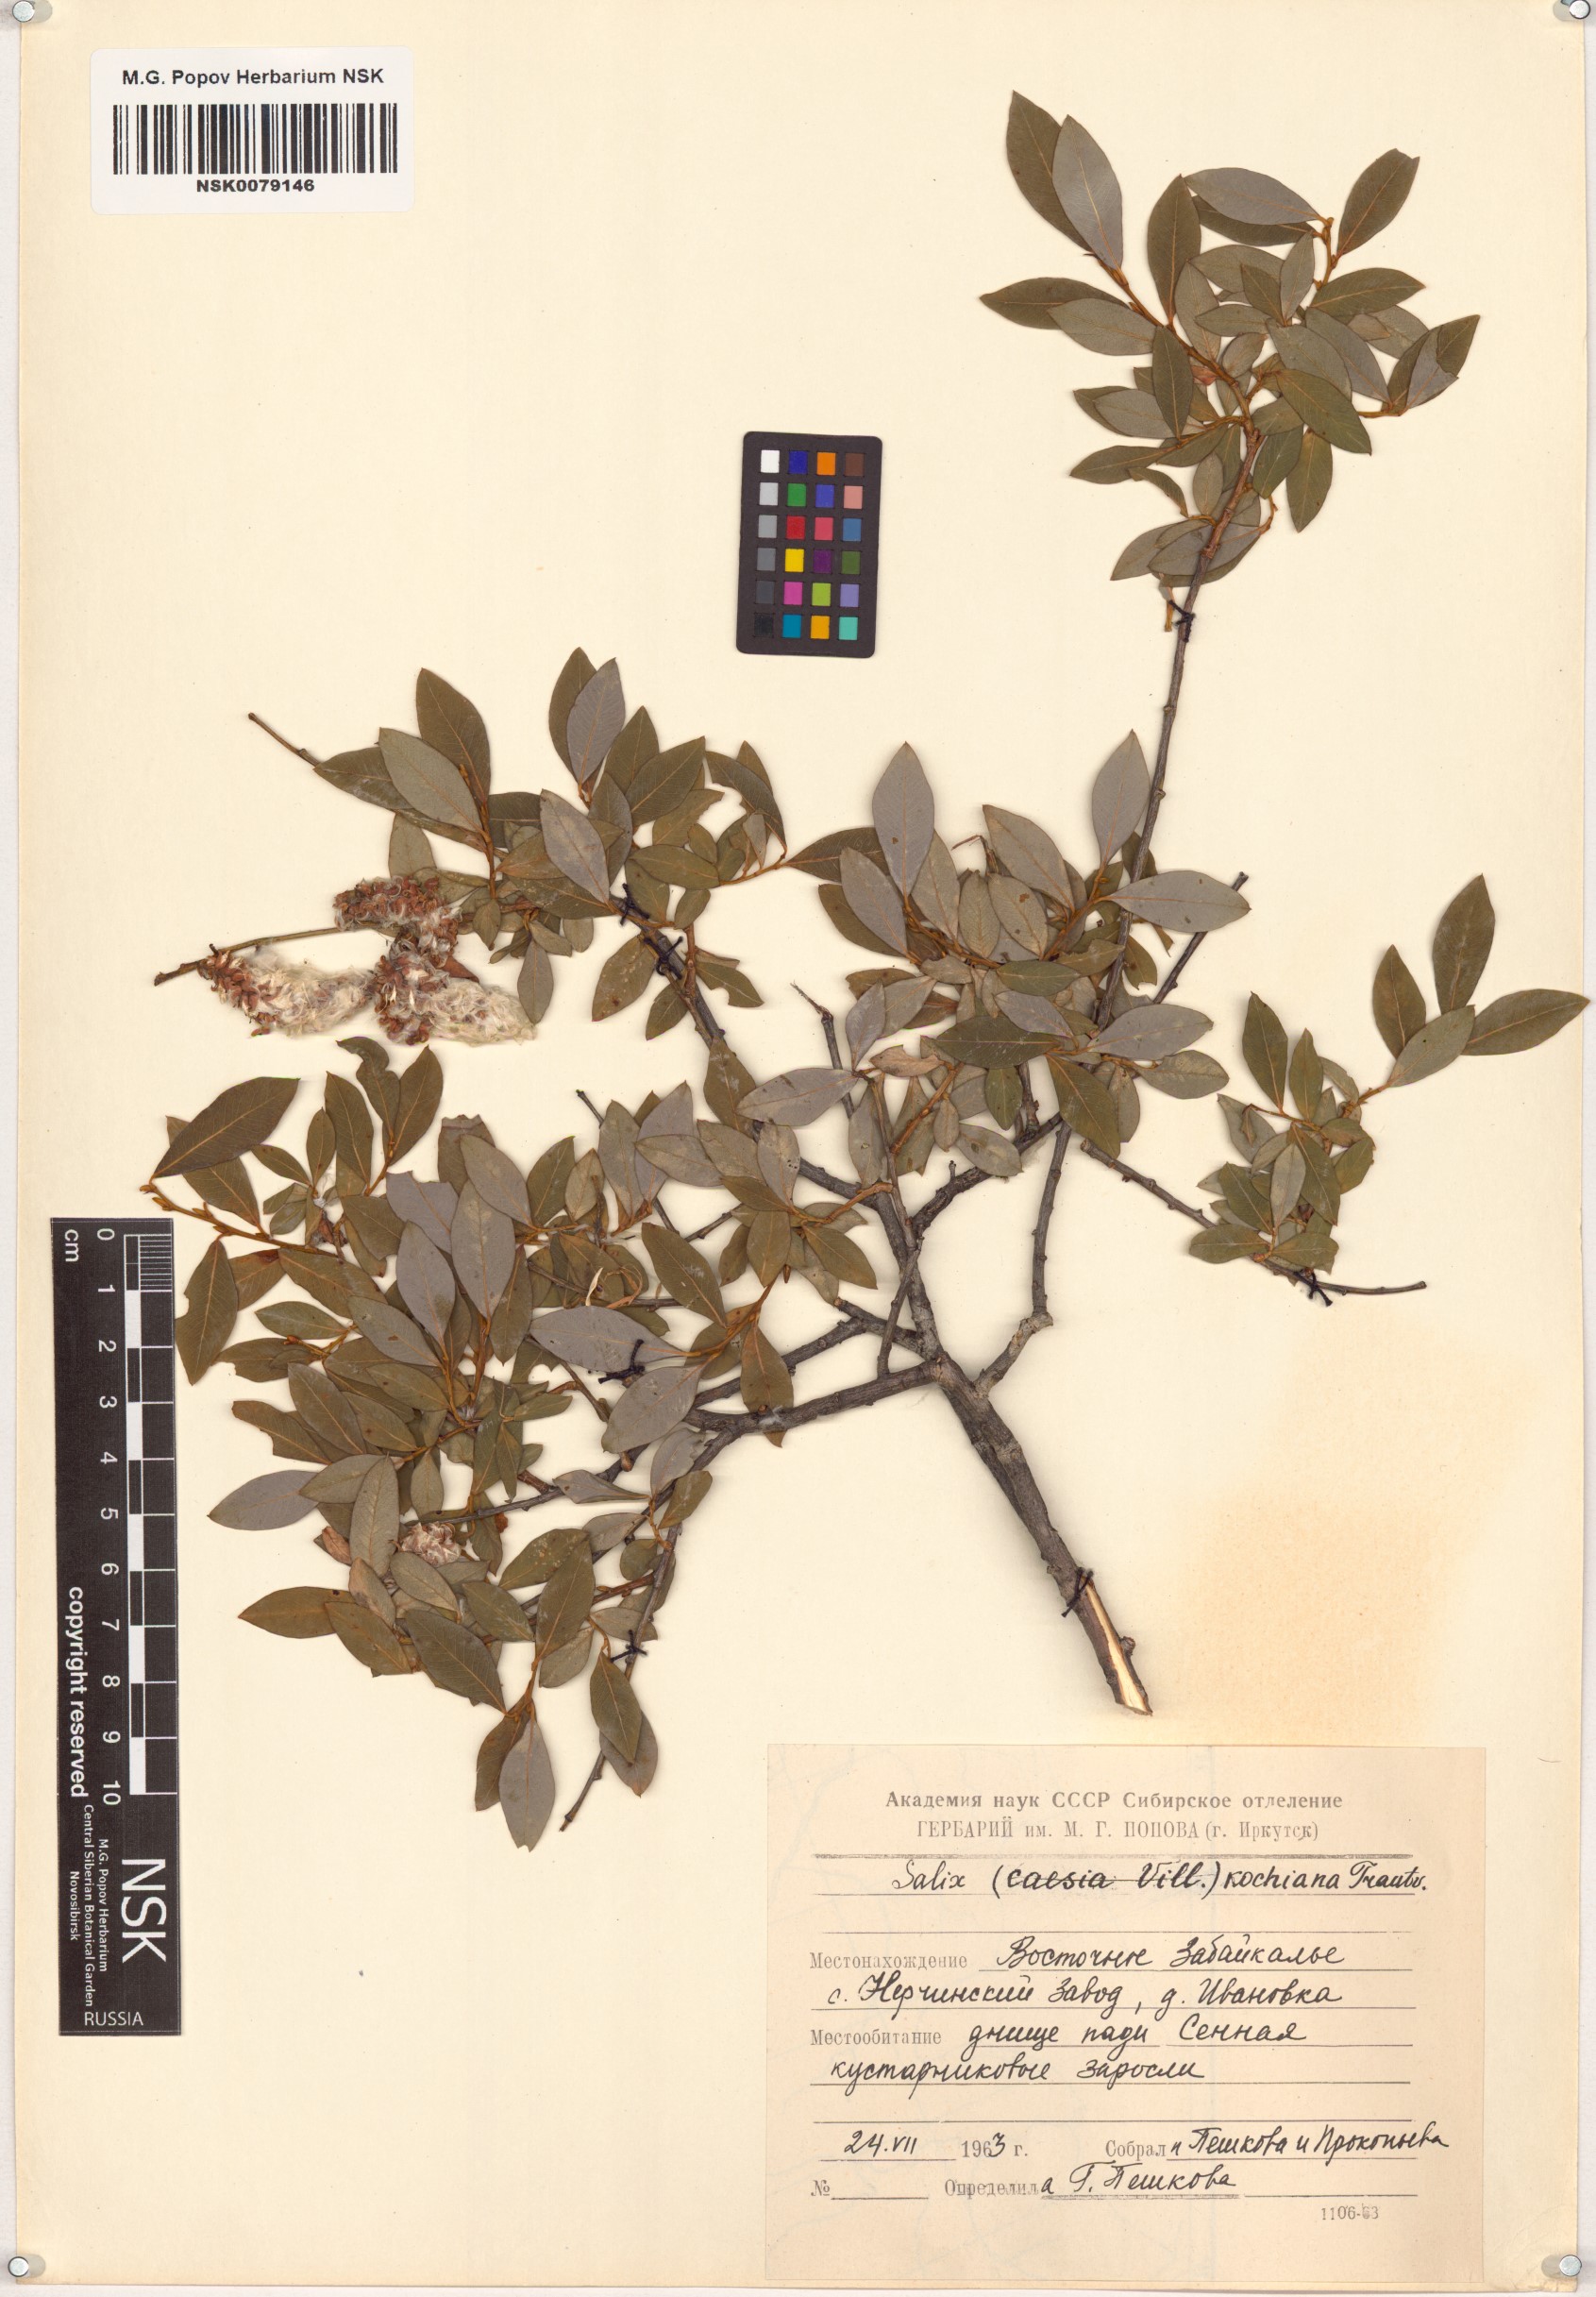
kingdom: Plantae
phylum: Tracheophyta
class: Magnoliopsida
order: Malpighiales
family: Salicaceae
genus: Salix
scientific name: Salix kochiana
